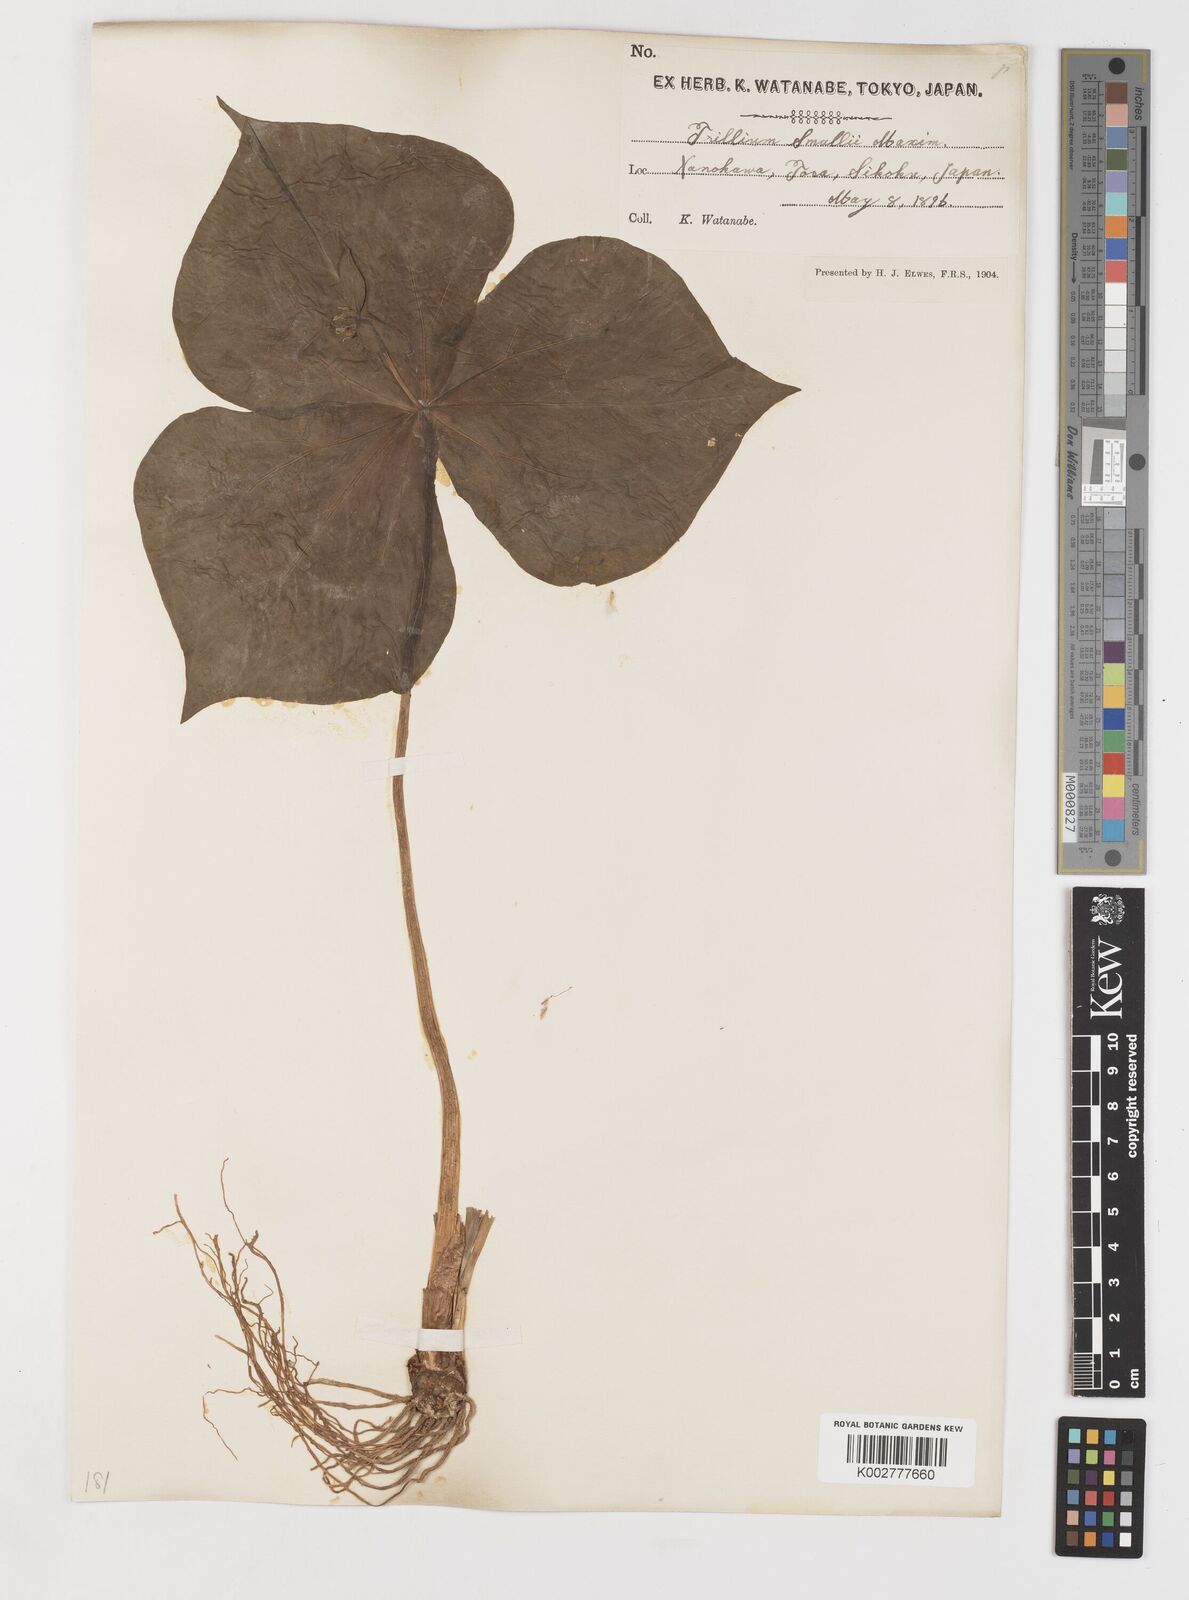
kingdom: Plantae
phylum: Tracheophyta
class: Liliopsida
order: Liliales
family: Melanthiaceae
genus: Trillium
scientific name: Trillium smallii
